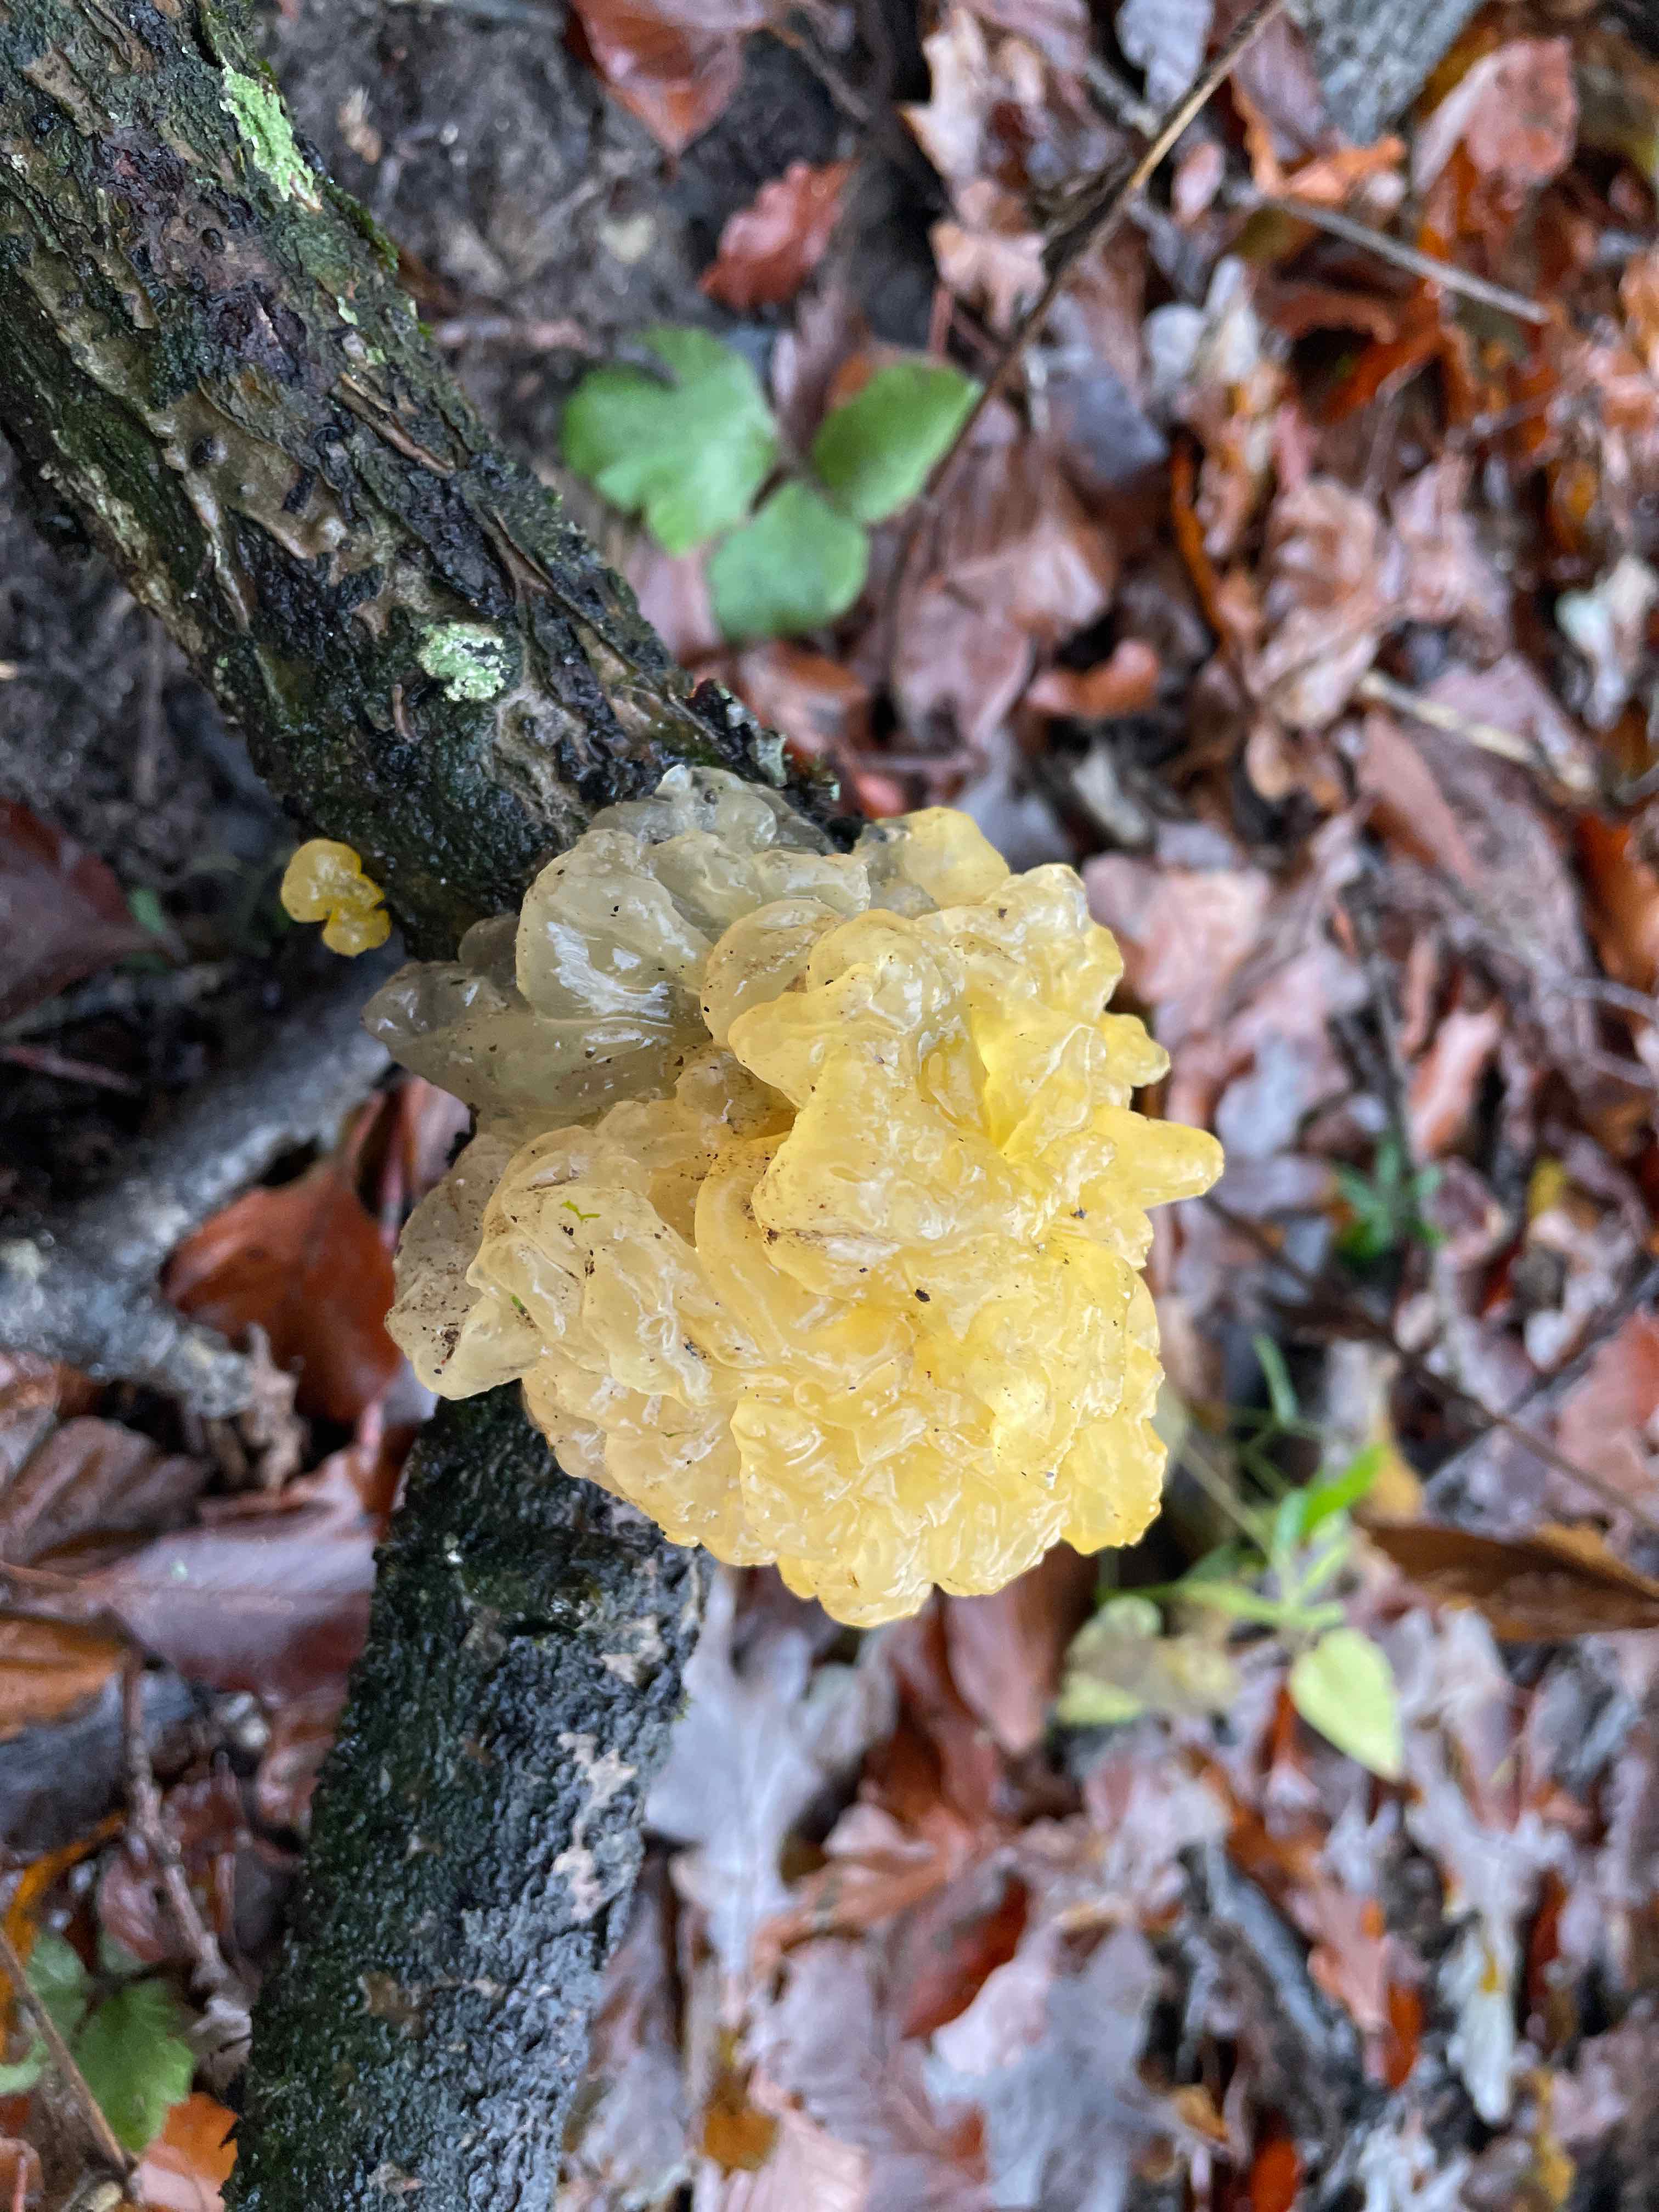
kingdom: Fungi
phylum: Basidiomycota
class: Tremellomycetes
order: Tremellales
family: Tremellaceae
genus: Tremella
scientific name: Tremella mesenterica
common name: gul bævresvamp
